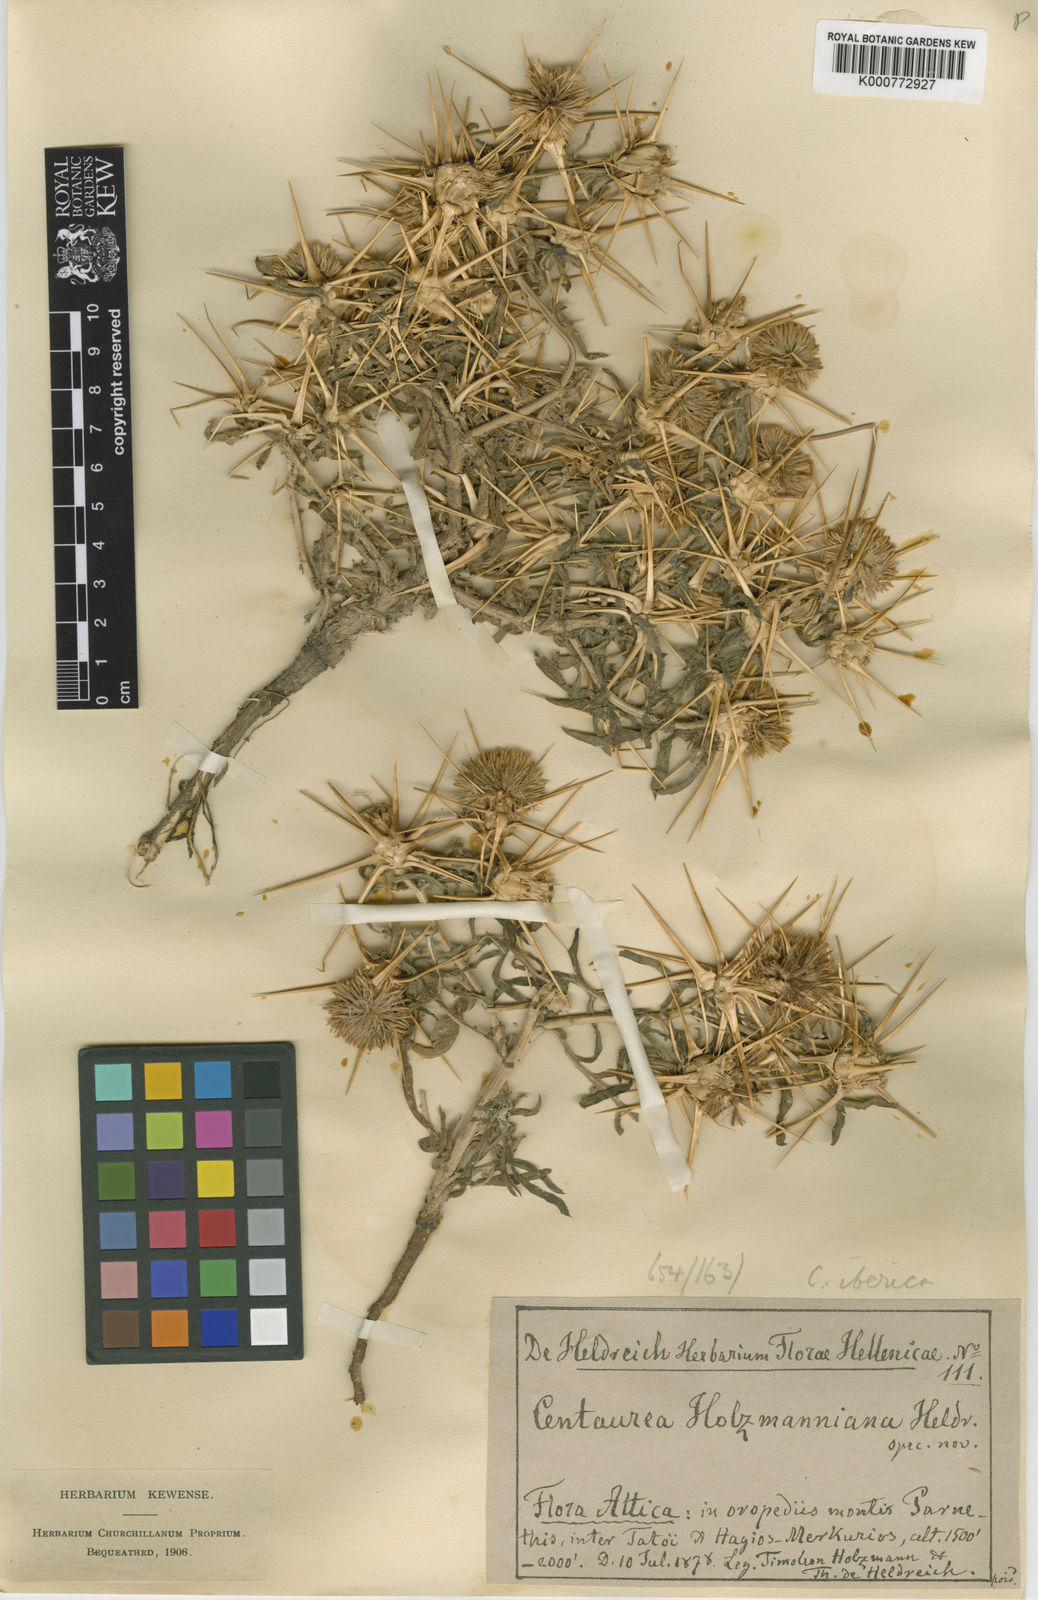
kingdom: Plantae
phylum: Tracheophyta
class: Magnoliopsida
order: Asterales
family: Asteraceae
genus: Centaurea
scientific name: Centaurea iberica
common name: Iberian knapweed
